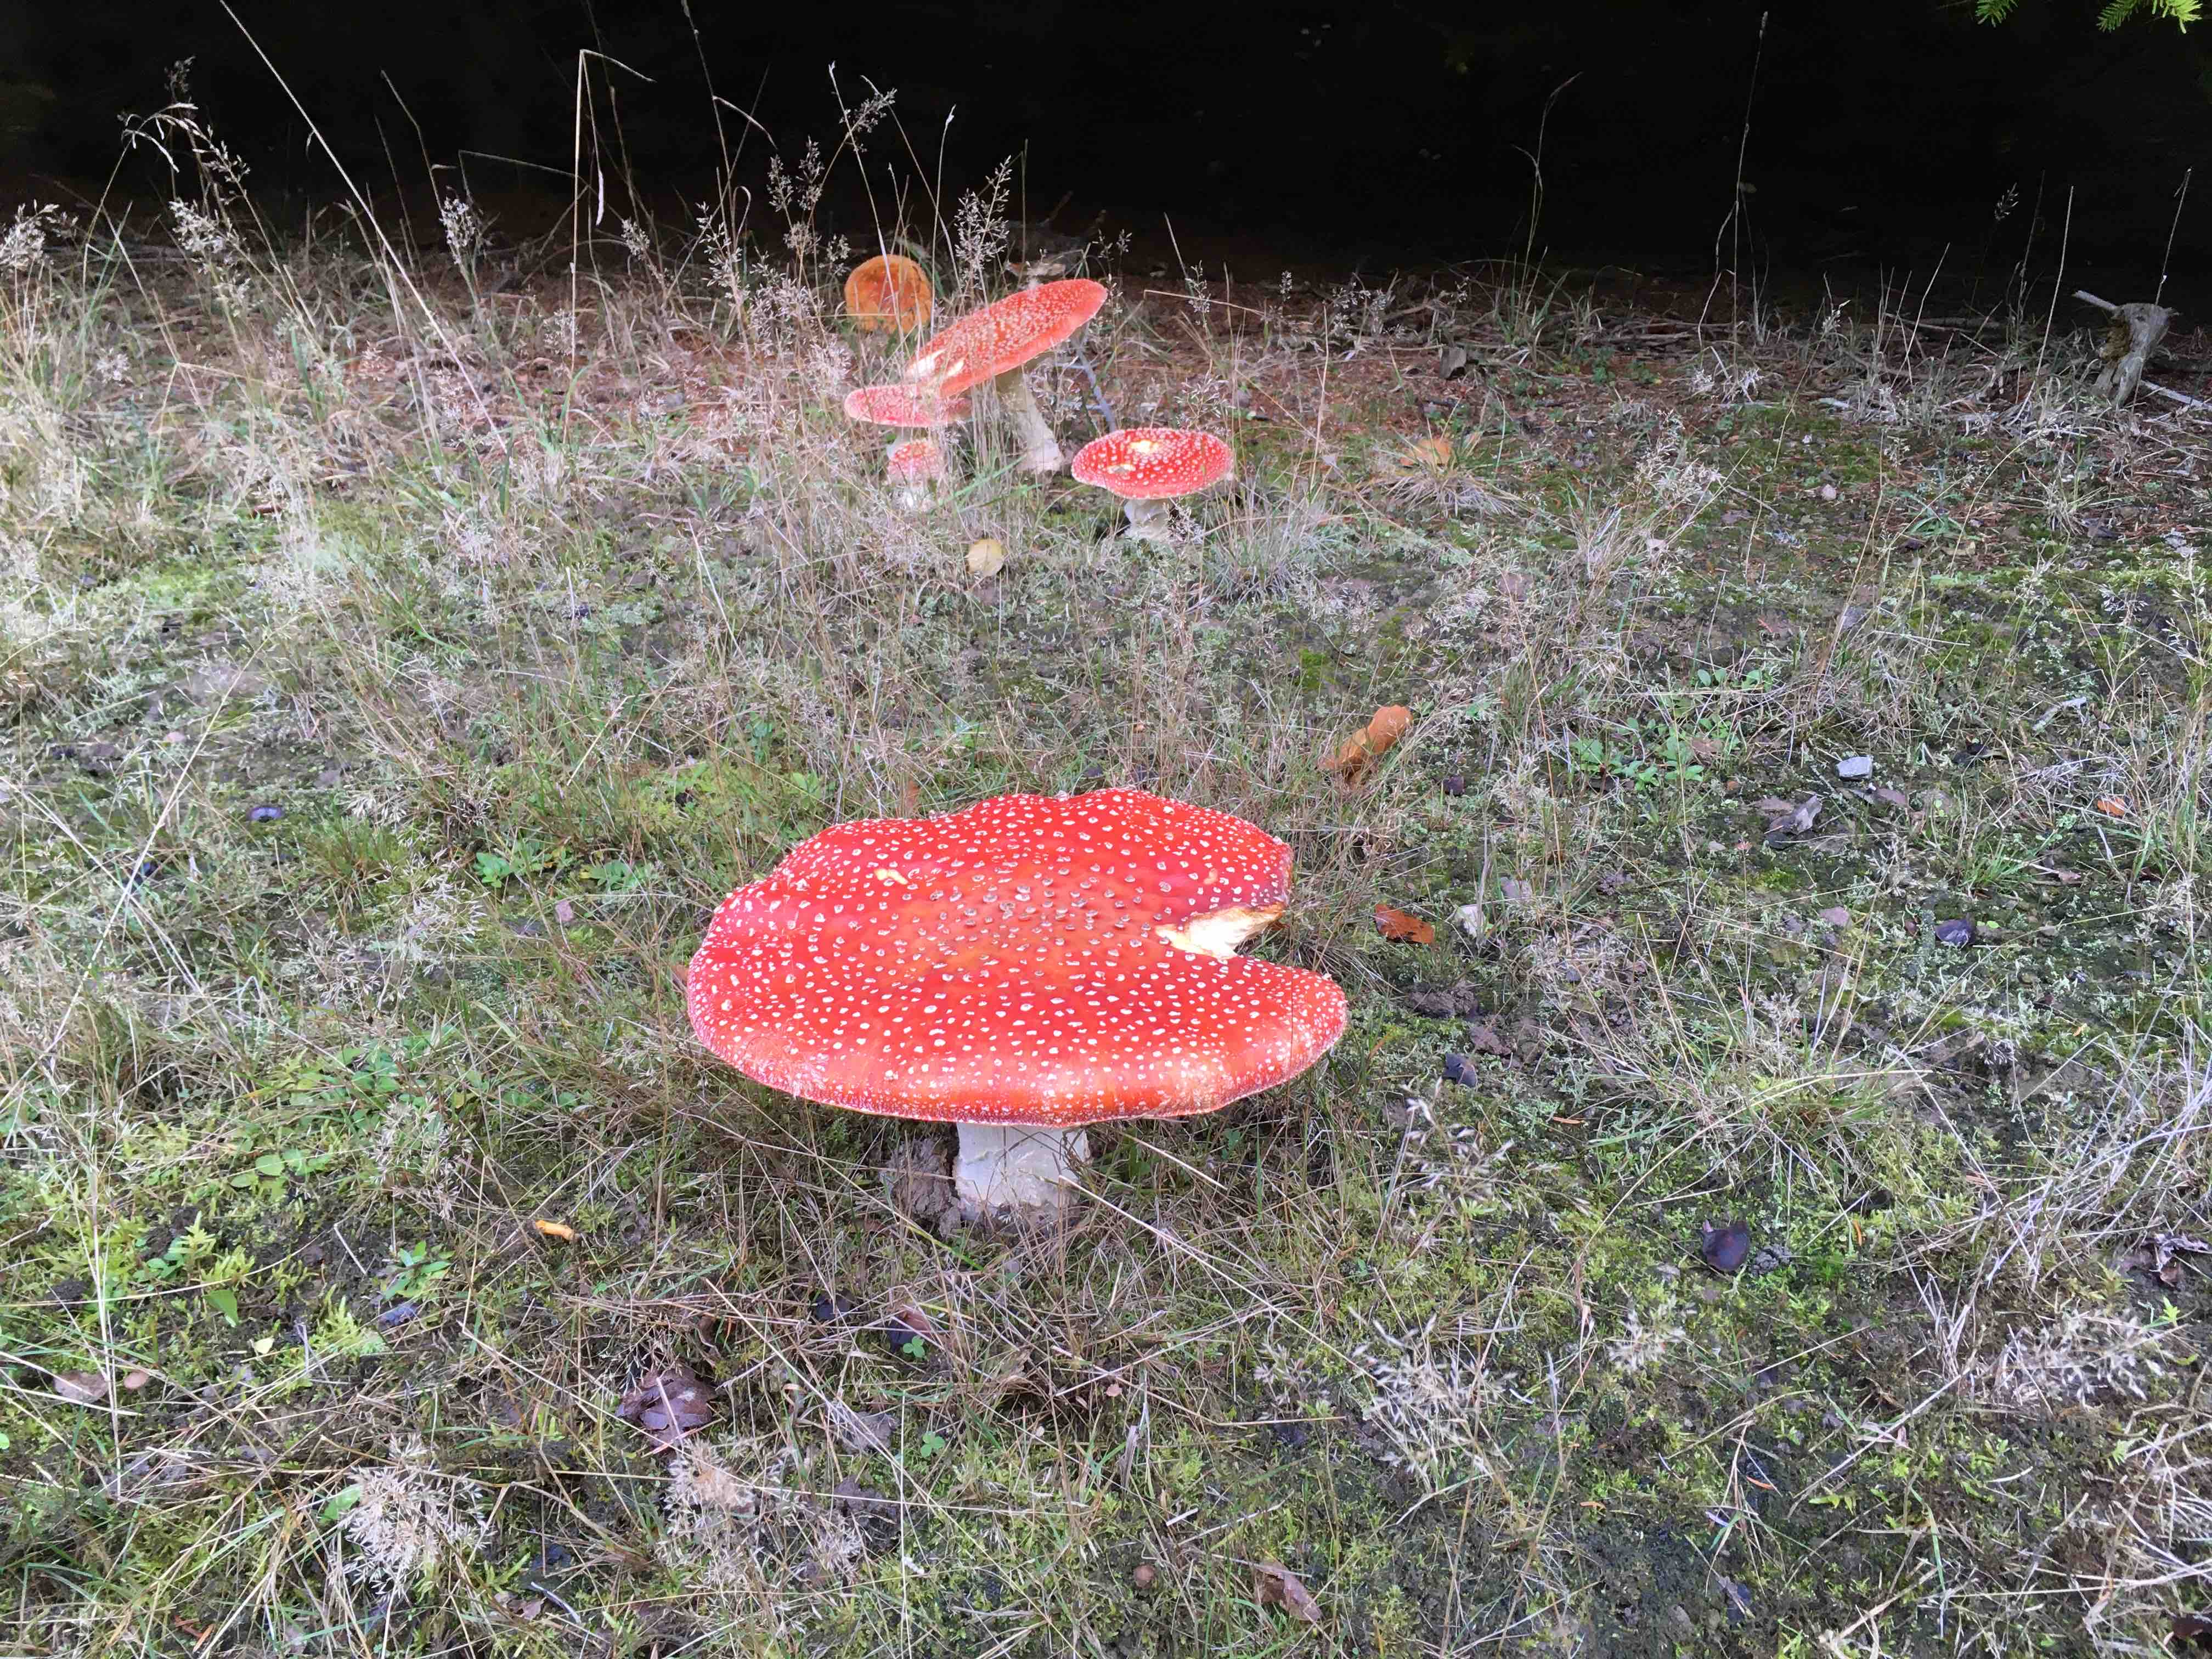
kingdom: Fungi
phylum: Basidiomycota
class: Agaricomycetes
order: Agaricales
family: Amanitaceae
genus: Amanita
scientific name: Amanita muscaria
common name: rød fluesvamp
